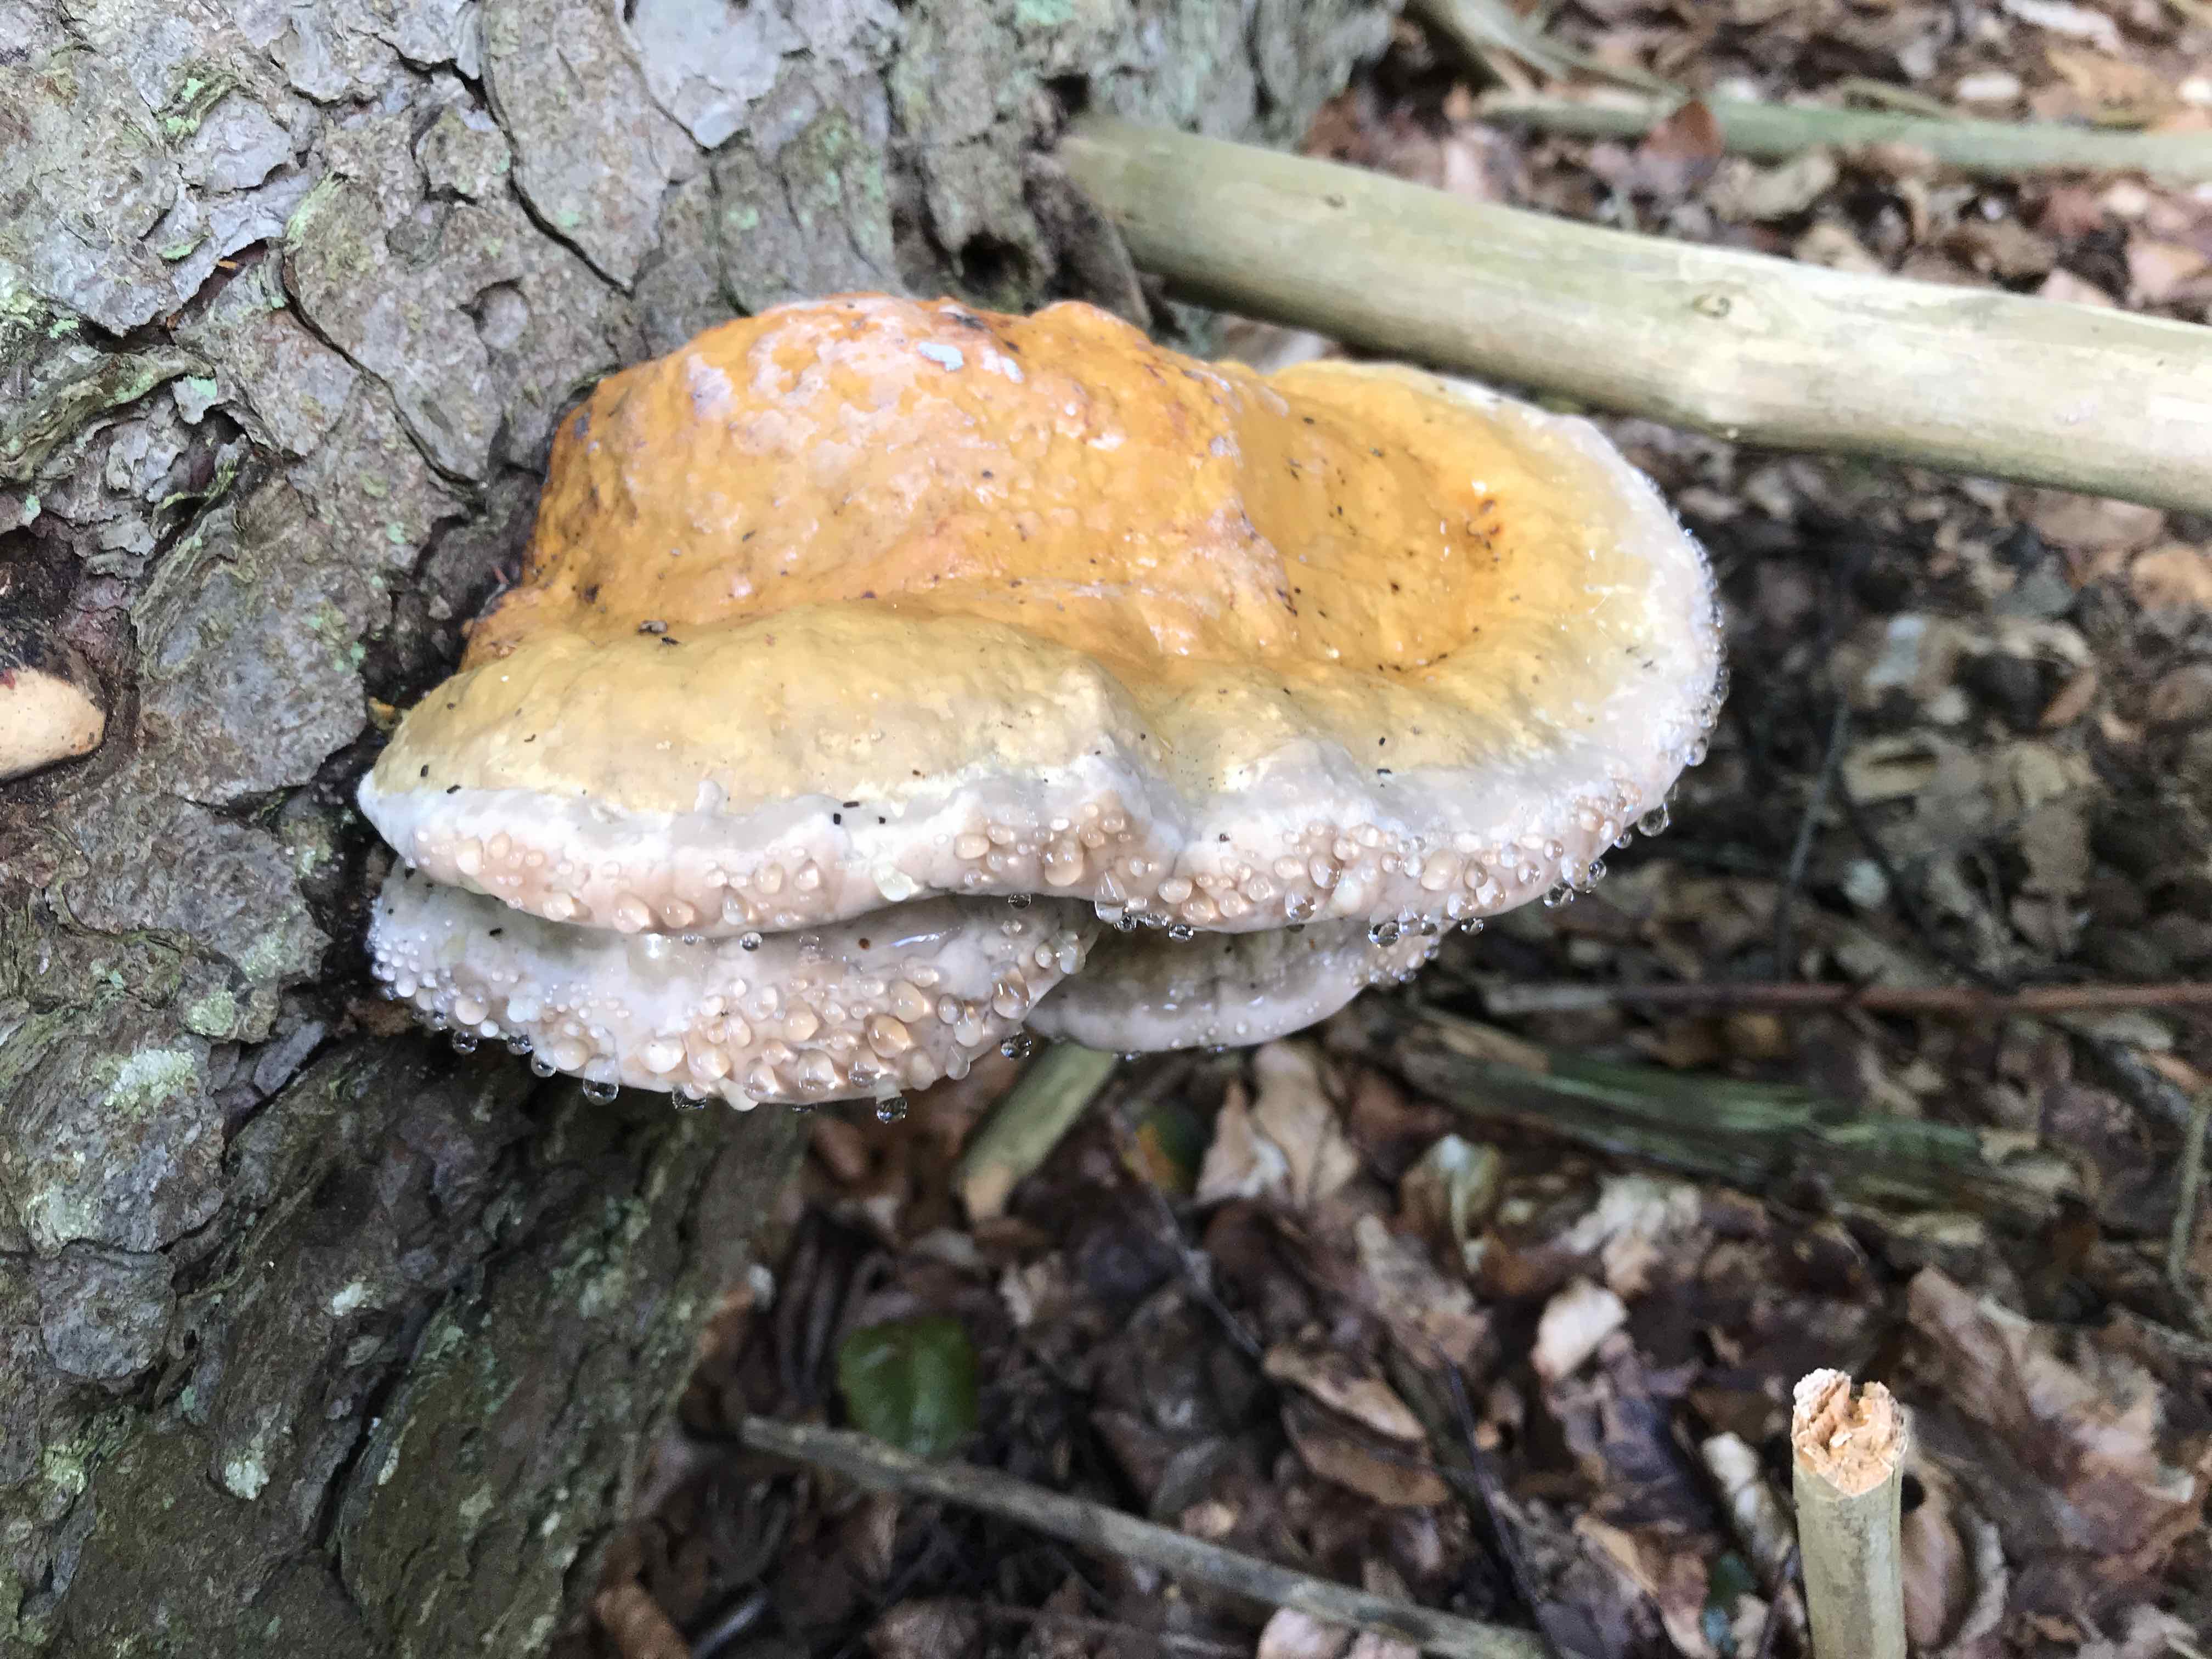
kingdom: Fungi
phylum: Basidiomycota
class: Agaricomycetes
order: Polyporales
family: Fomitopsidaceae
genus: Fomitopsis
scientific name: Fomitopsis pinicola
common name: randbæltet hovporesvamp
